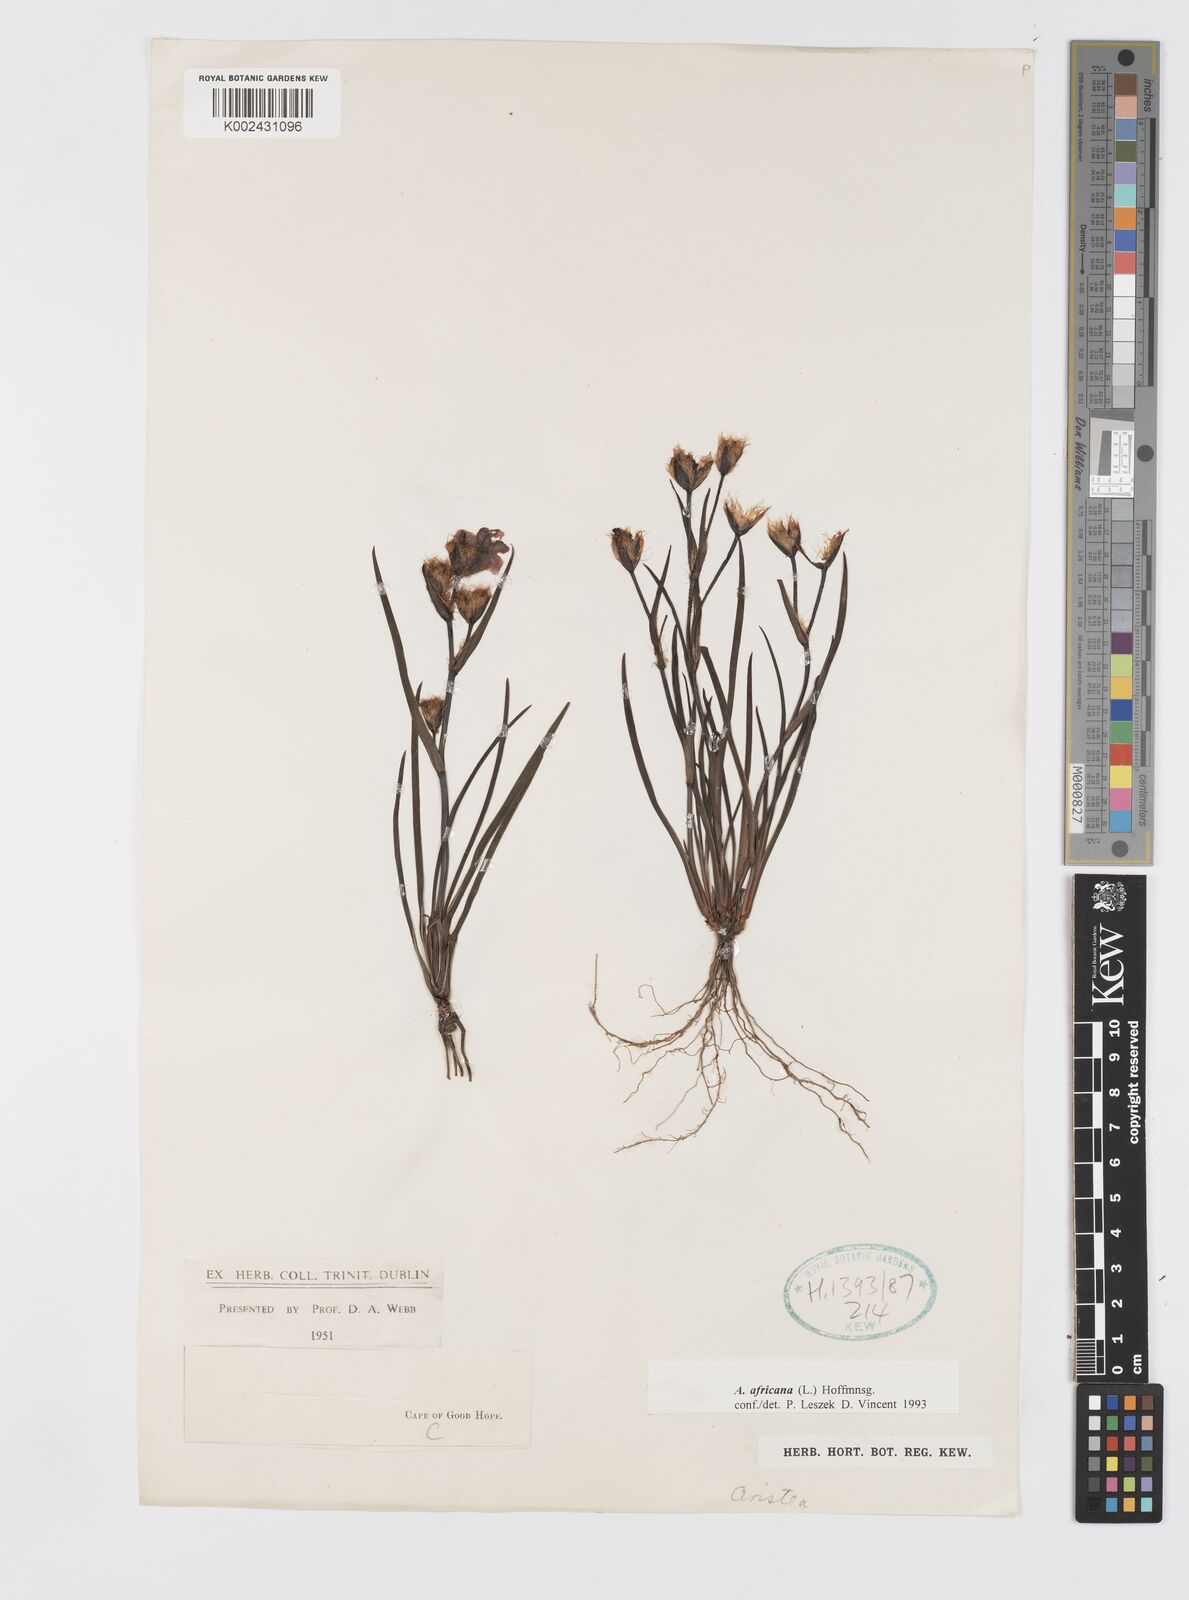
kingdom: Plantae
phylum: Tracheophyta
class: Liliopsida
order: Asparagales
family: Iridaceae
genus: Aristea
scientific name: Aristea africana
